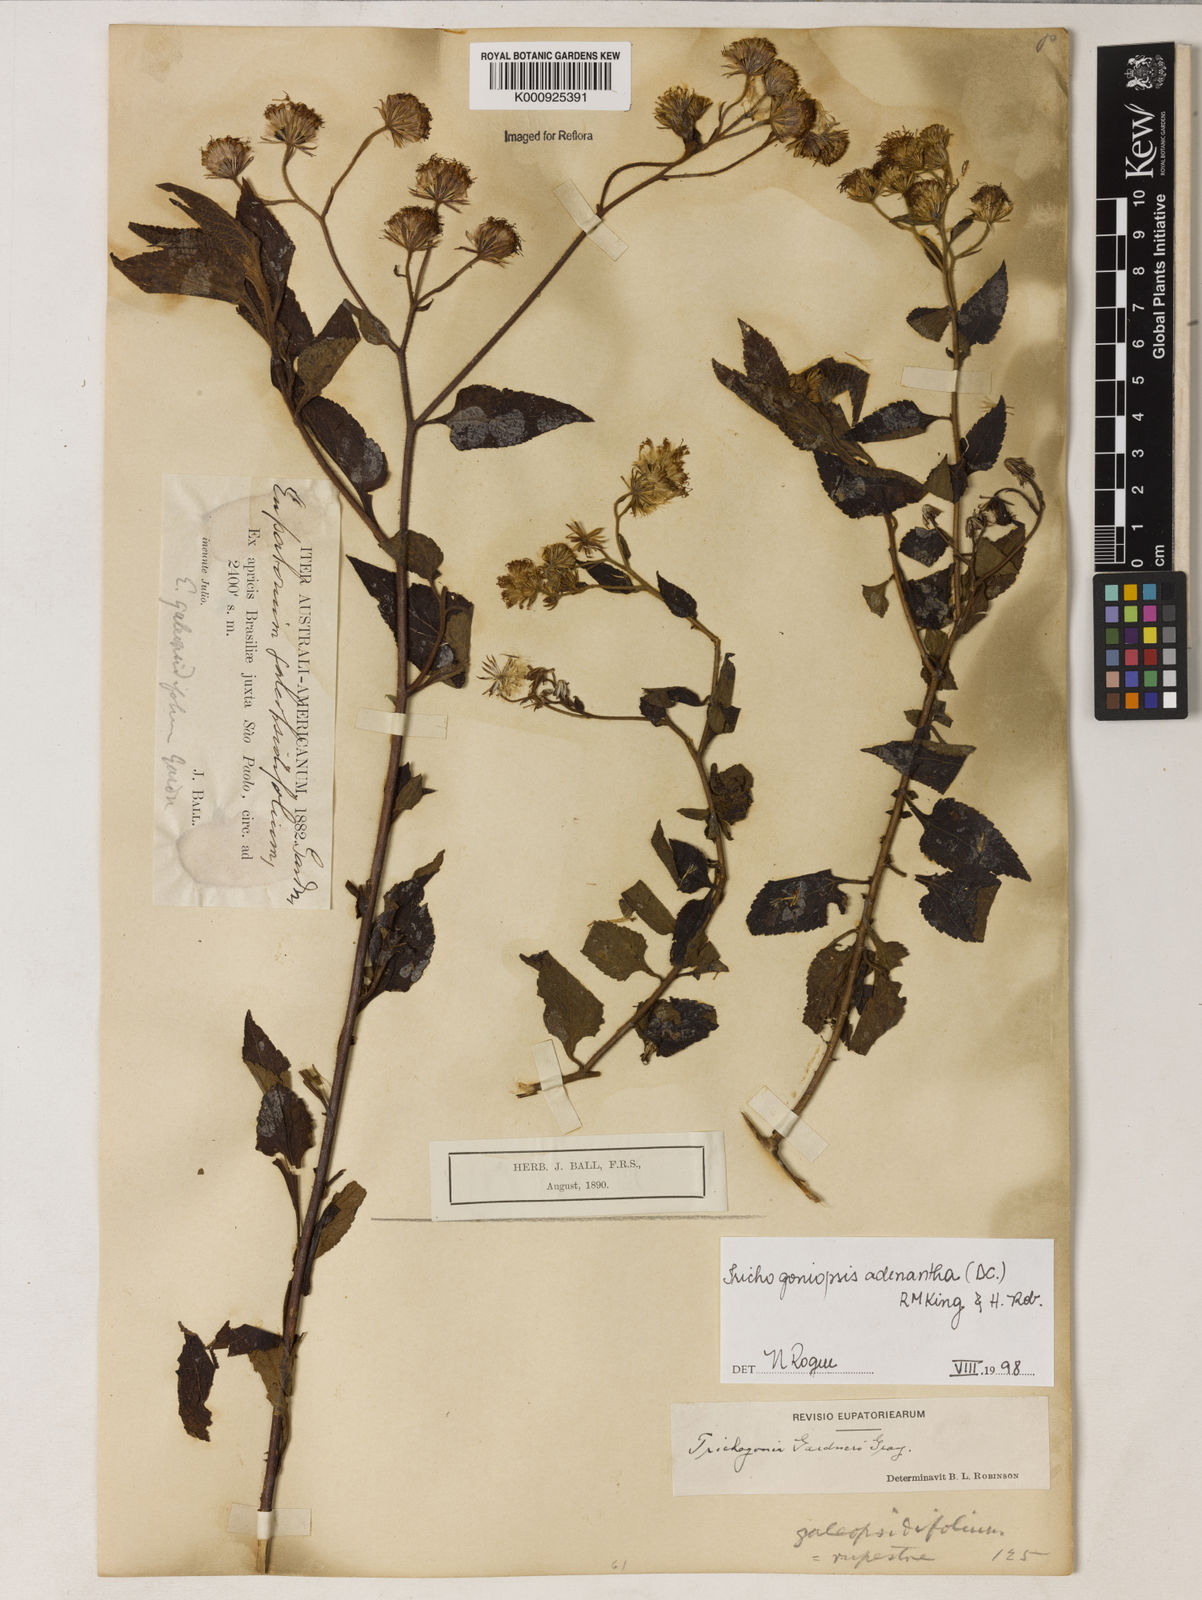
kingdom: Plantae
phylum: Tracheophyta
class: Magnoliopsida
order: Asterales
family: Asteraceae
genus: Trichogoniopsis
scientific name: Trichogoniopsis adenantha
